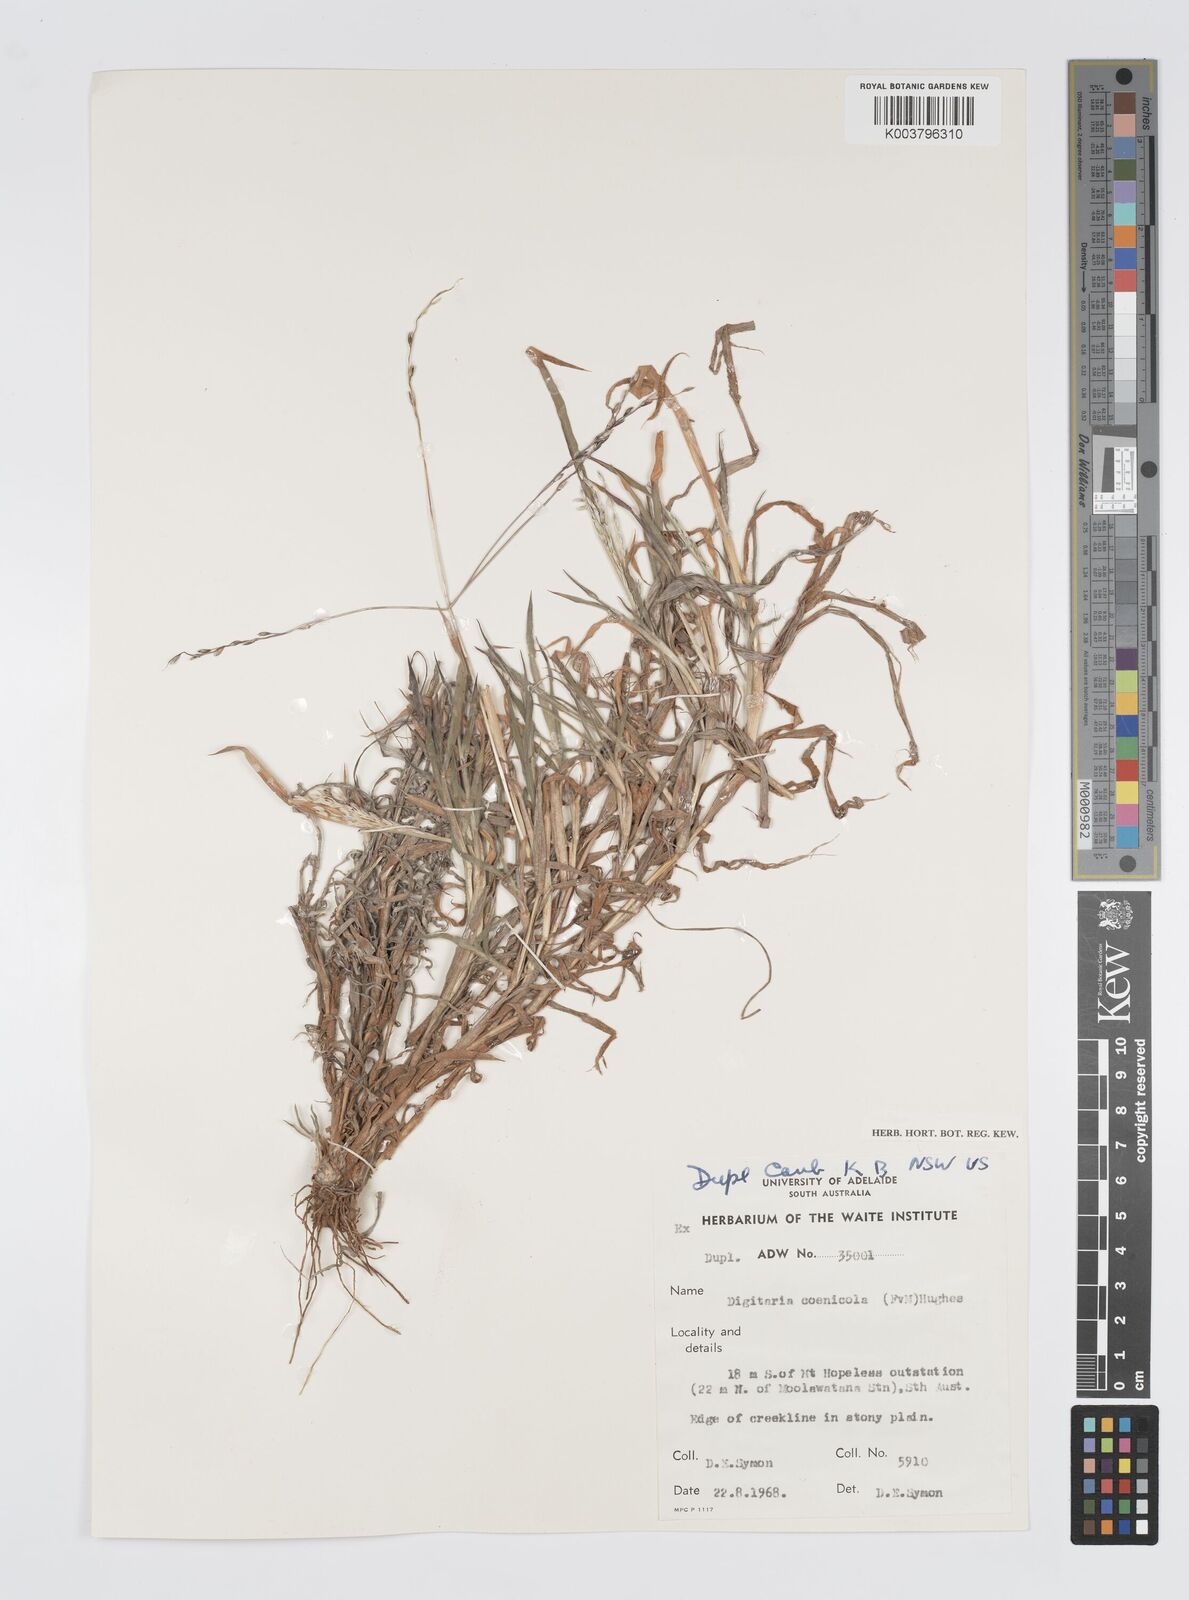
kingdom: Plantae
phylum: Tracheophyta
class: Liliopsida
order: Poales
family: Poaceae
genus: Digitaria
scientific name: Digitaria coenicola
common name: Kanta grass
